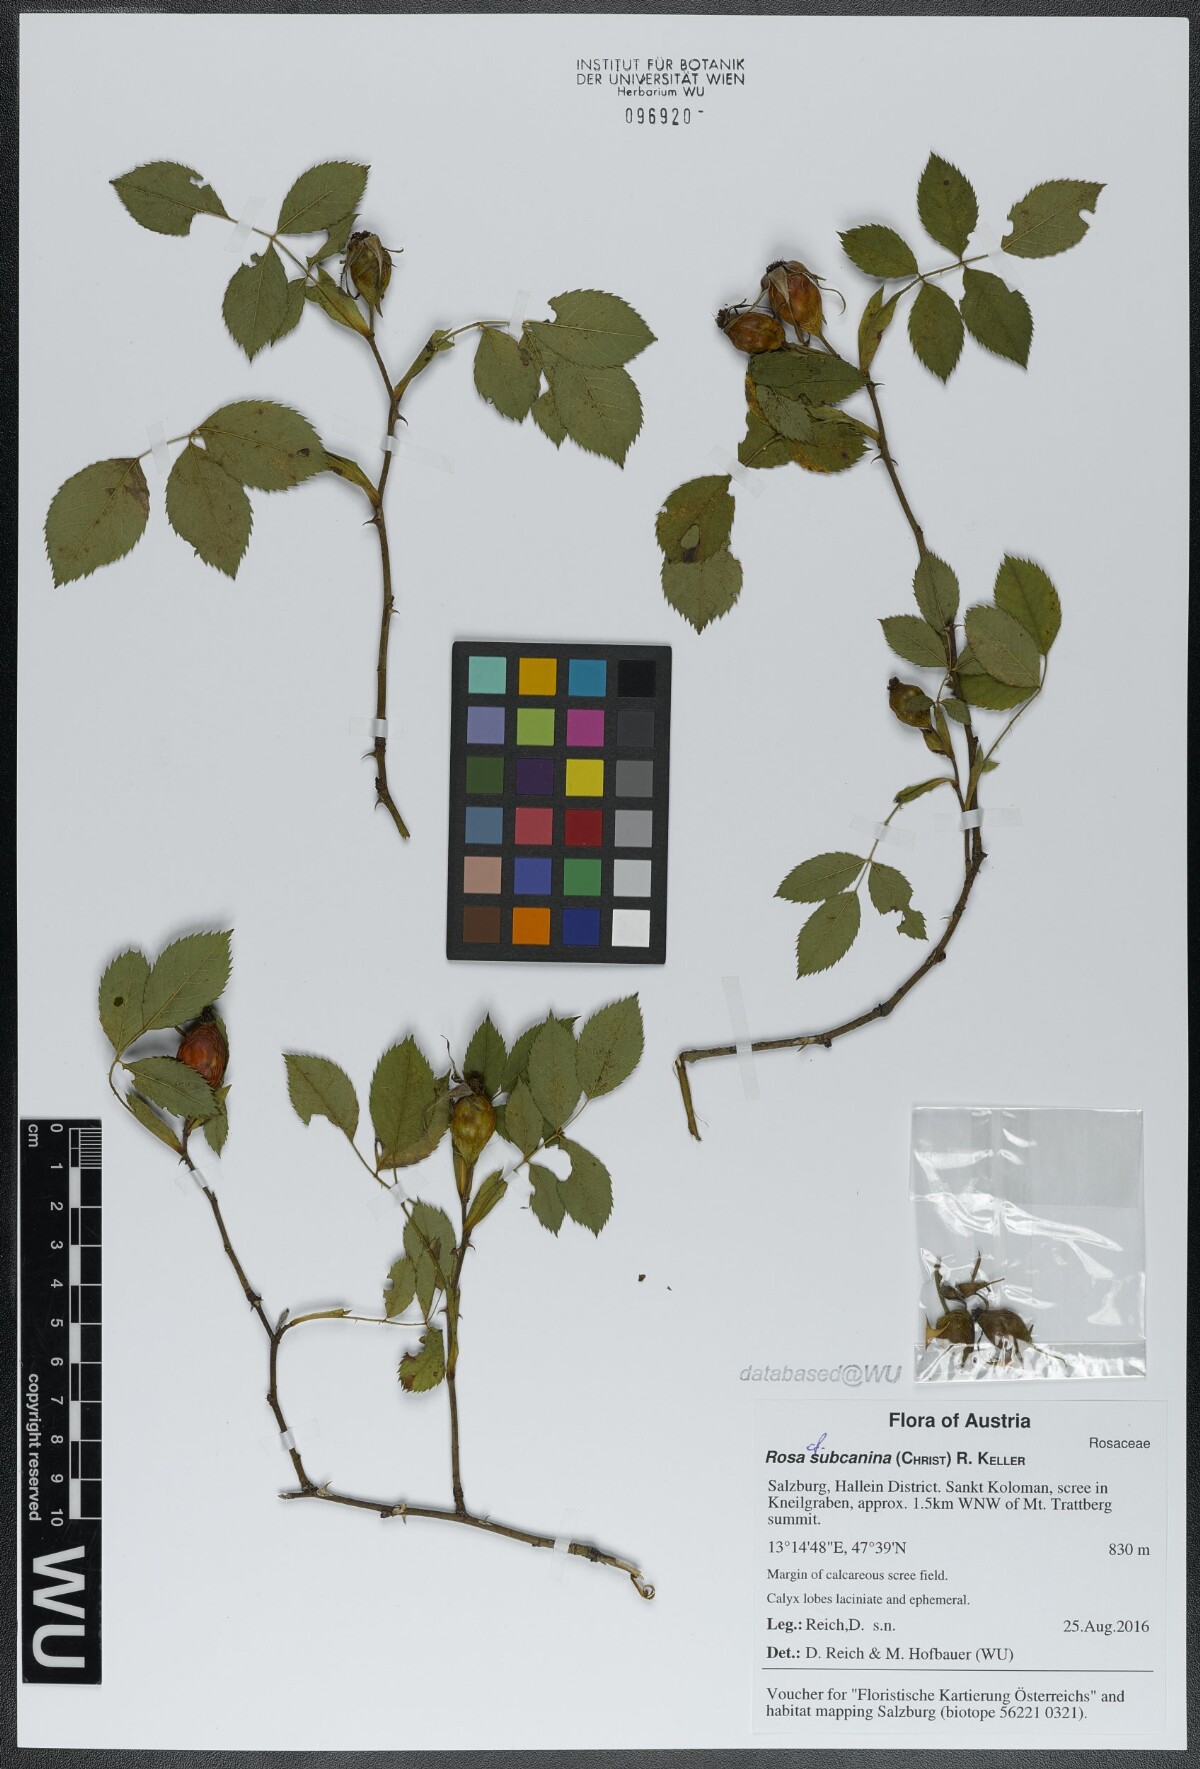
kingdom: Plantae
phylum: Tracheophyta
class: Magnoliopsida
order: Rosales
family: Rosaceae
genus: Rosa
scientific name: Rosa subcanina
